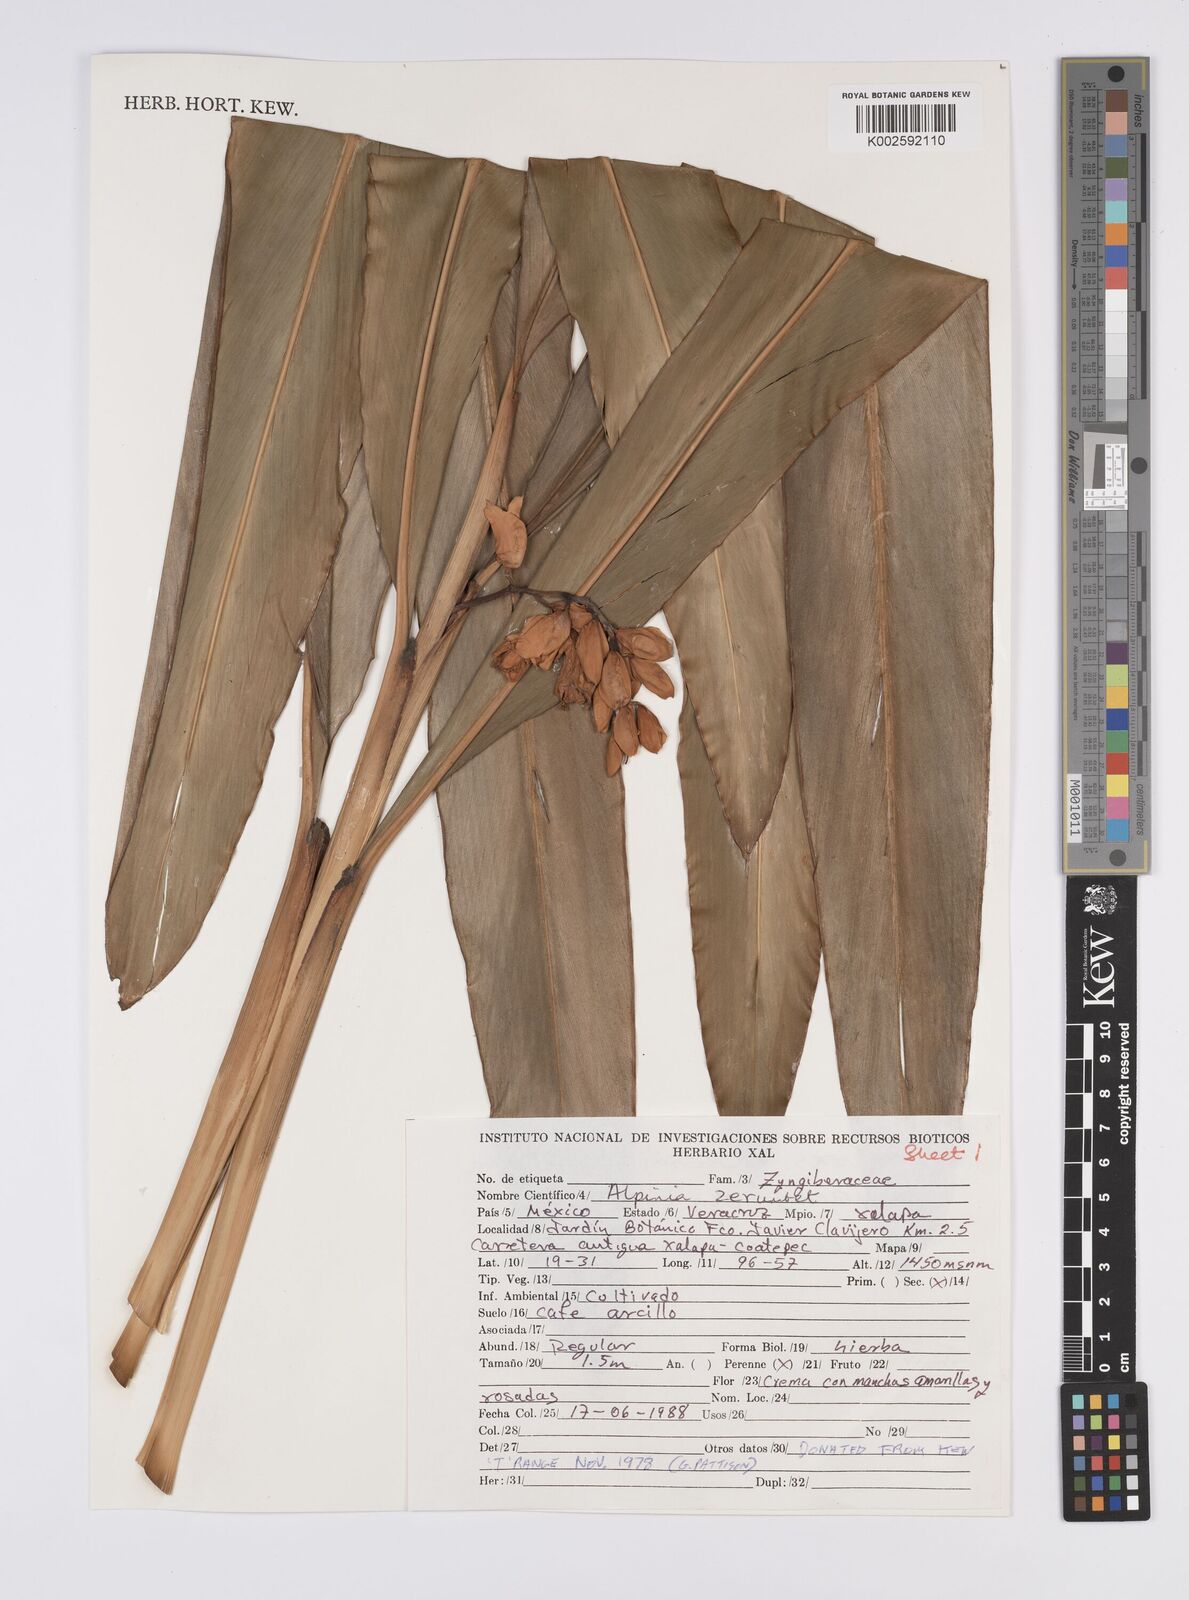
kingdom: Plantae
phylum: Tracheophyta
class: Liliopsida
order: Zingiberales
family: Zingiberaceae
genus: Alpinia
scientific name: Alpinia zerumbet
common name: Shellplant
